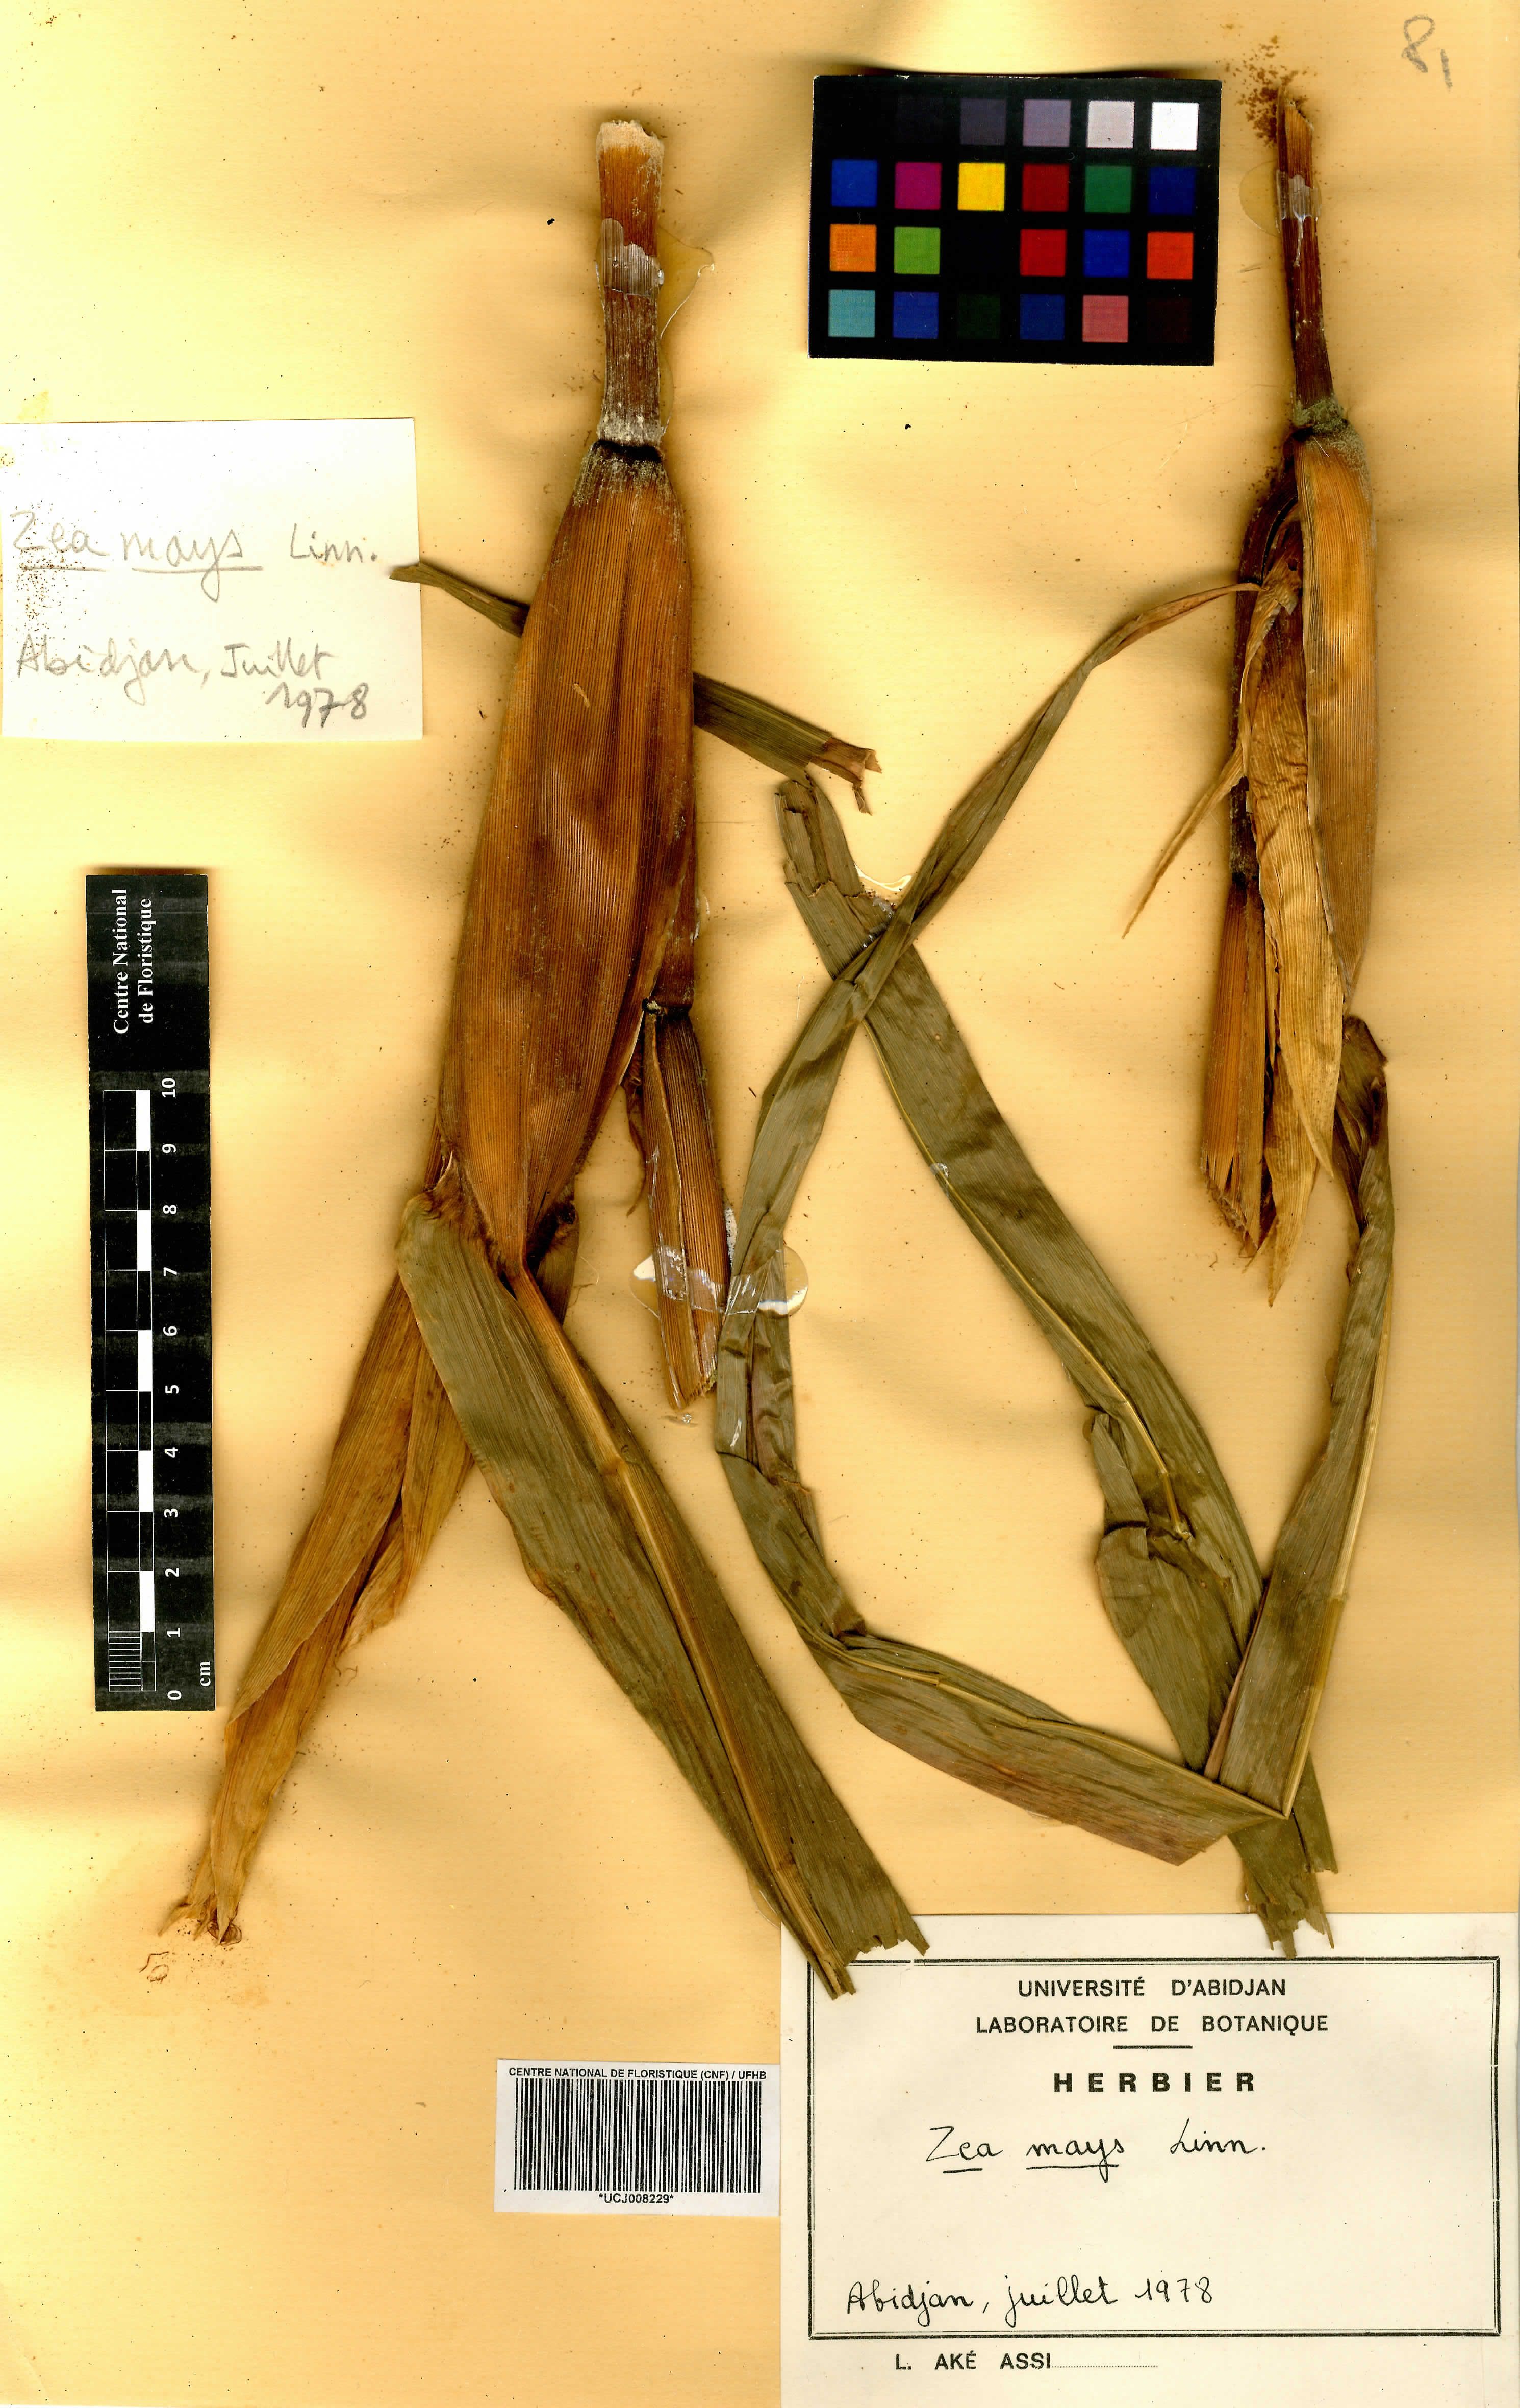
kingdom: Plantae
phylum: Tracheophyta
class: Liliopsida
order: Poales
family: Poaceae
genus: Zea
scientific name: Zea mays
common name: Maize
